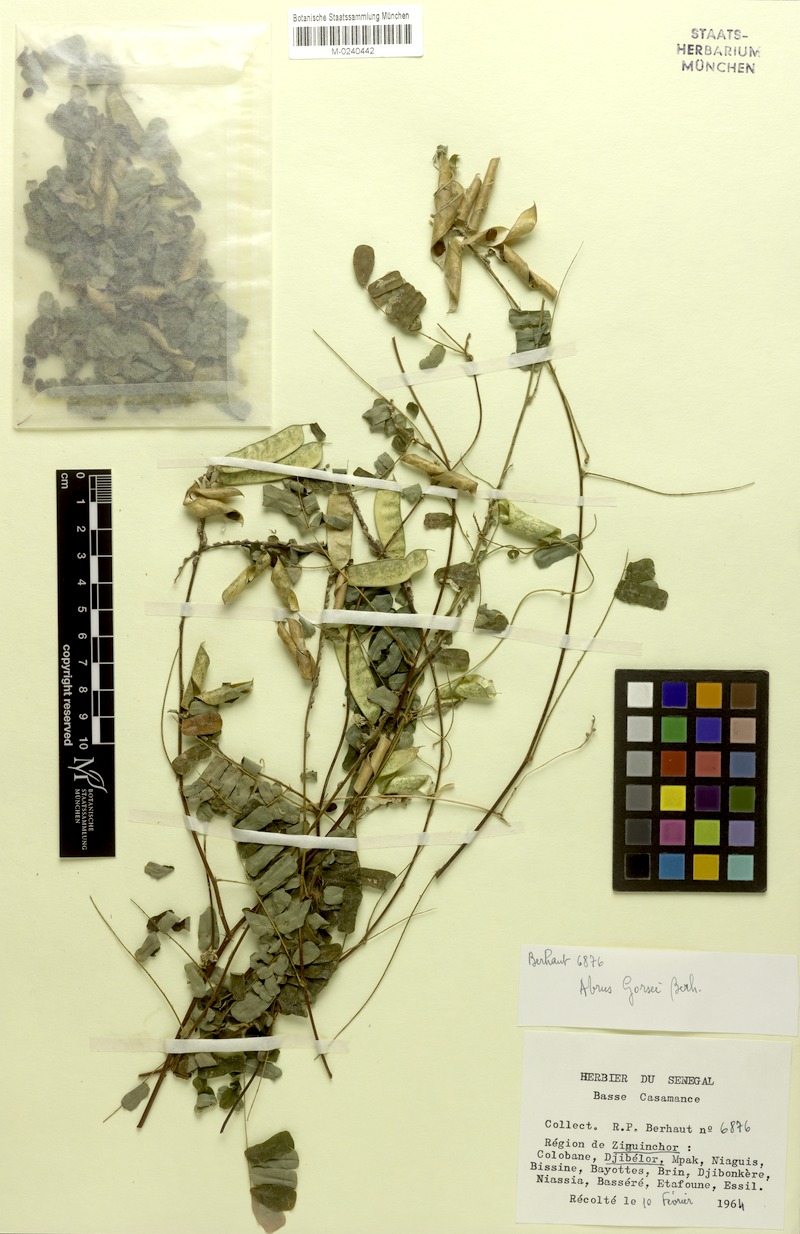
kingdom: Plantae
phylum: Tracheophyta
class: Magnoliopsida
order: Fabales
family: Fabaceae
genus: Abrus
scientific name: Abrus melanospermus
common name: Licorice-root
